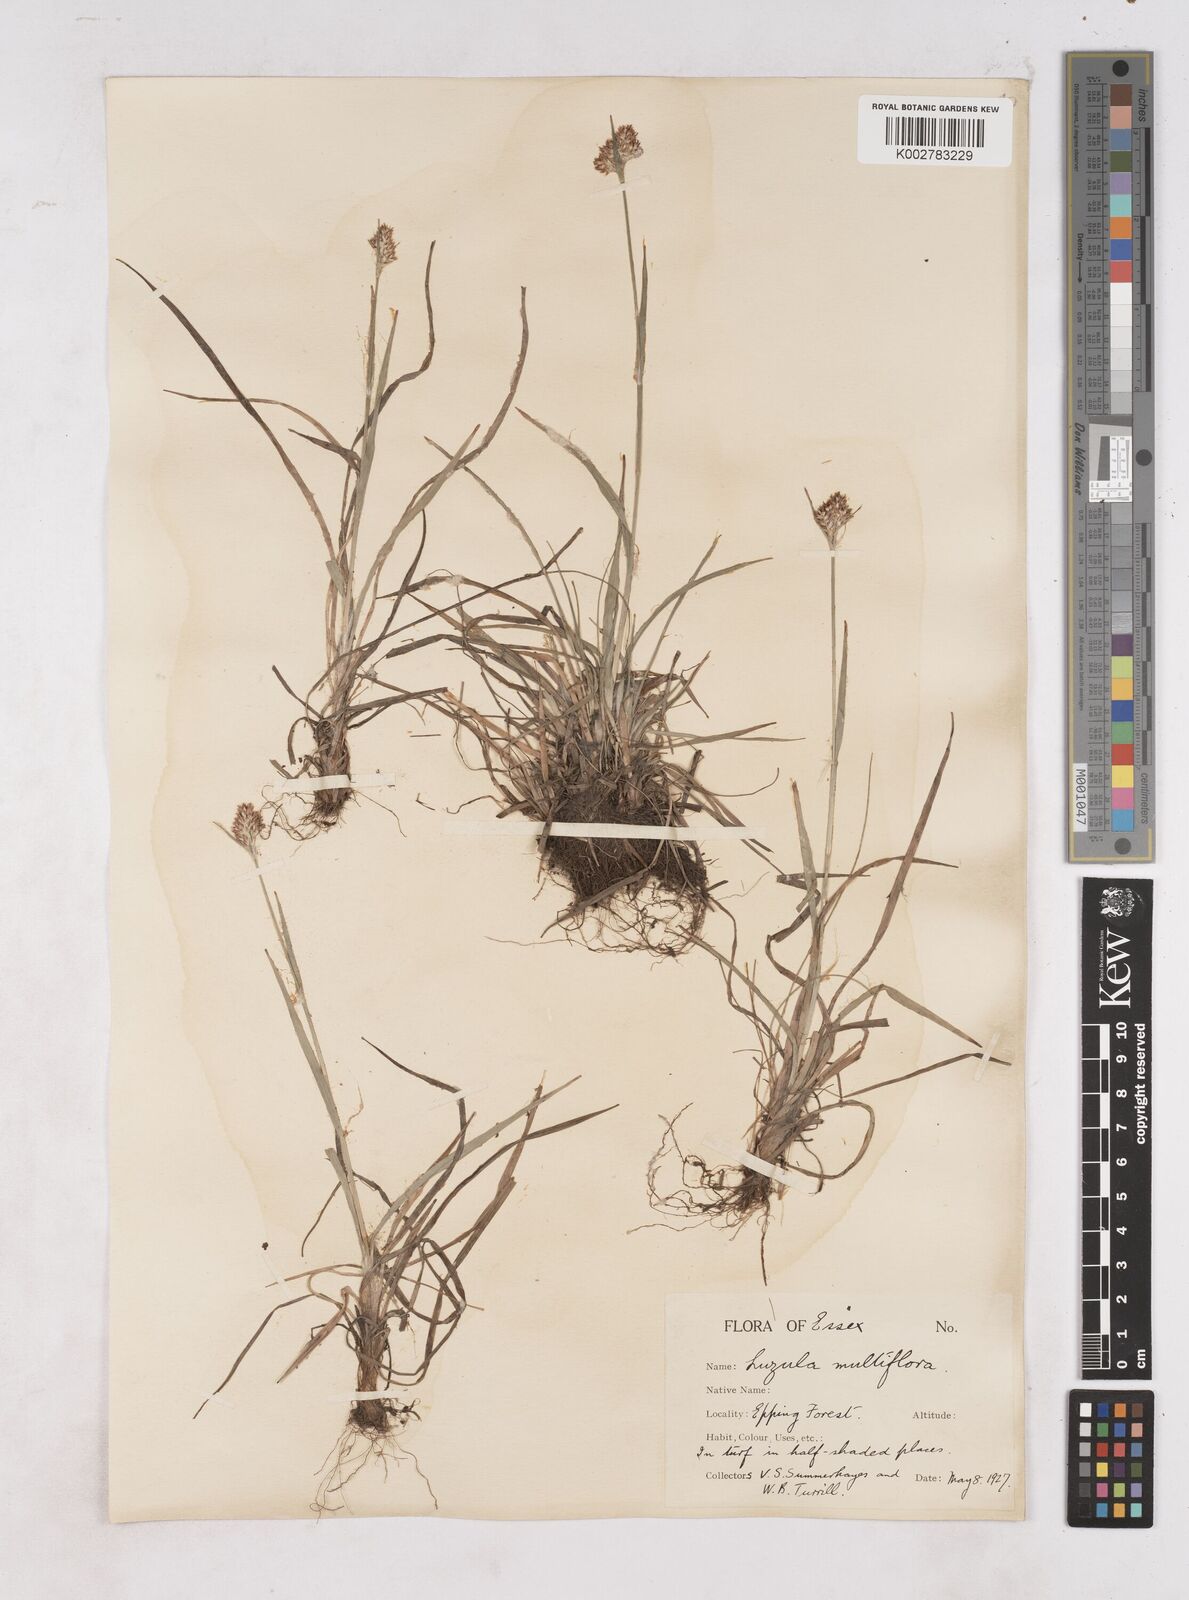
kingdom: Plantae
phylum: Tracheophyta
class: Liliopsida
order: Poales
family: Juncaceae
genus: Luzula
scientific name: Luzula multiflora
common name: Heath wood-rush
